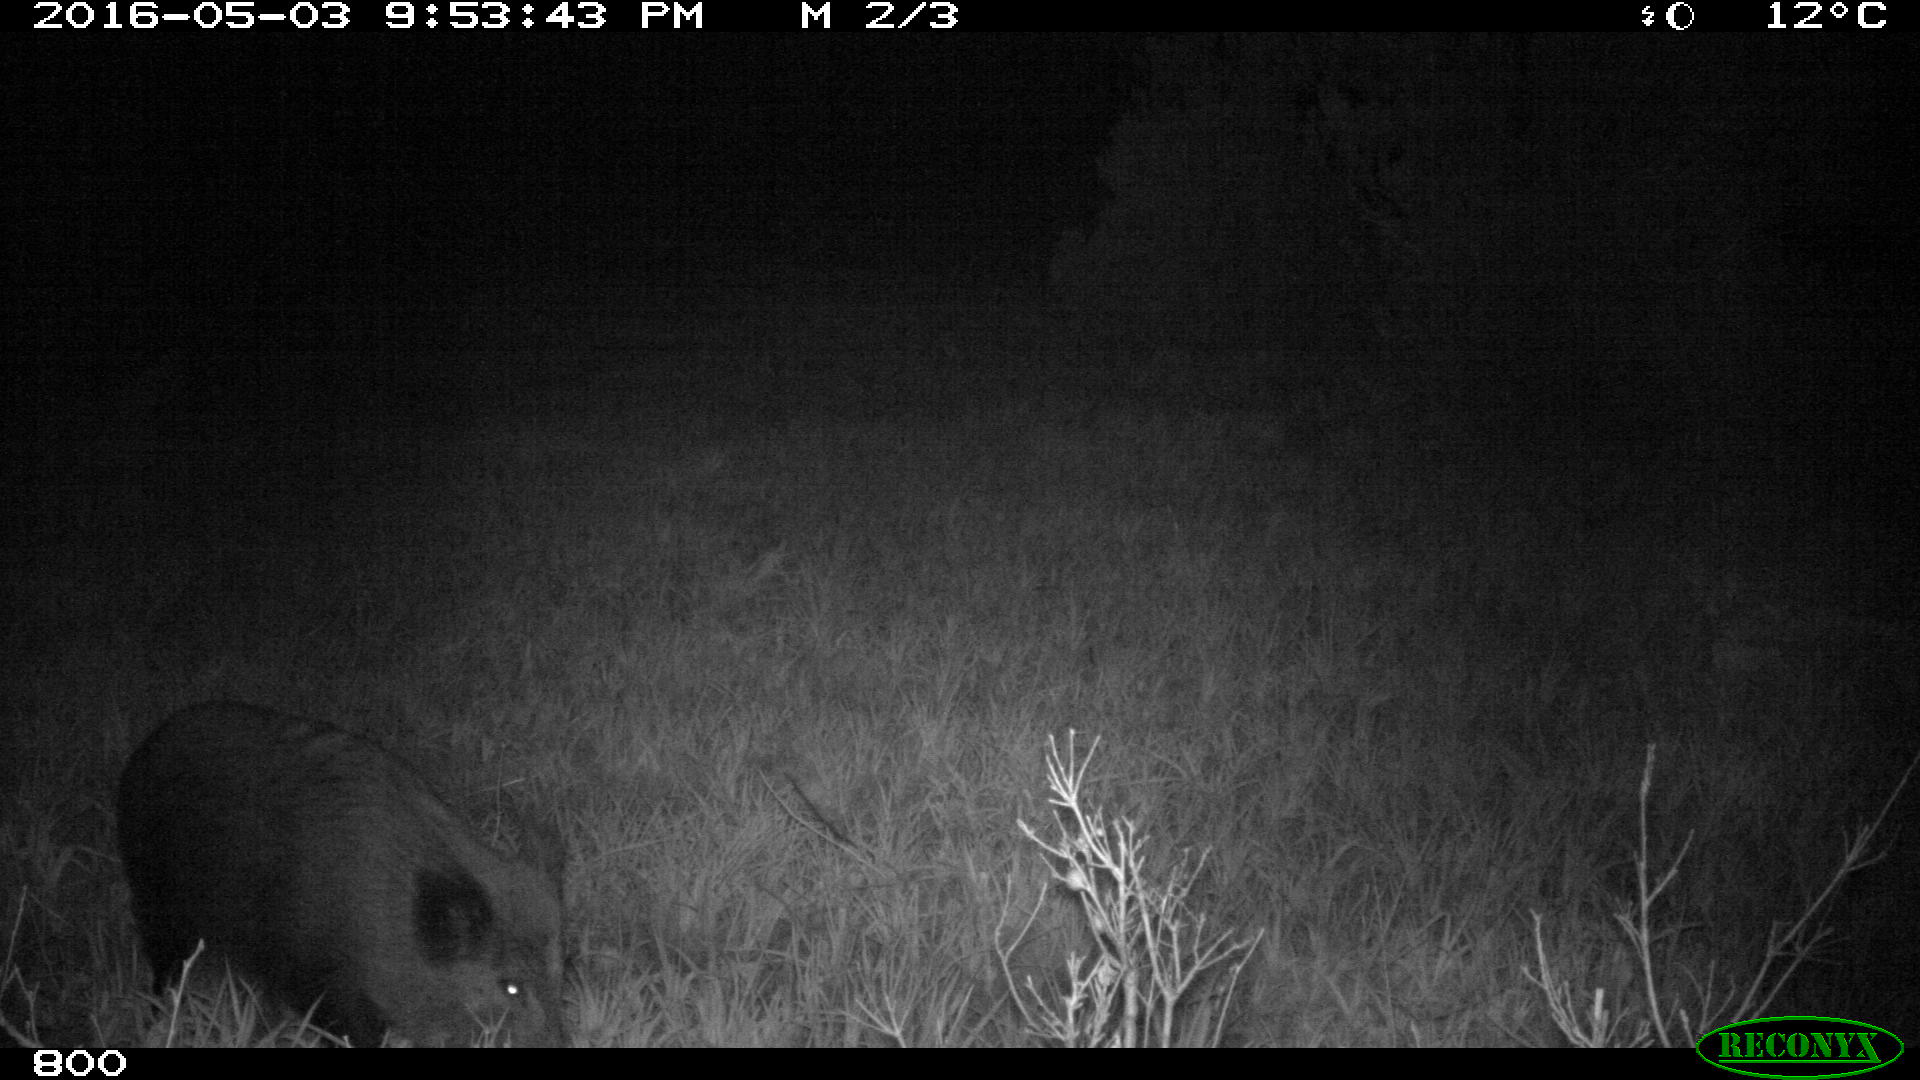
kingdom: Animalia
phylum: Chordata
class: Mammalia
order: Artiodactyla
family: Bovidae
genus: Bos
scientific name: Bos taurus
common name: Domesticated cattle
